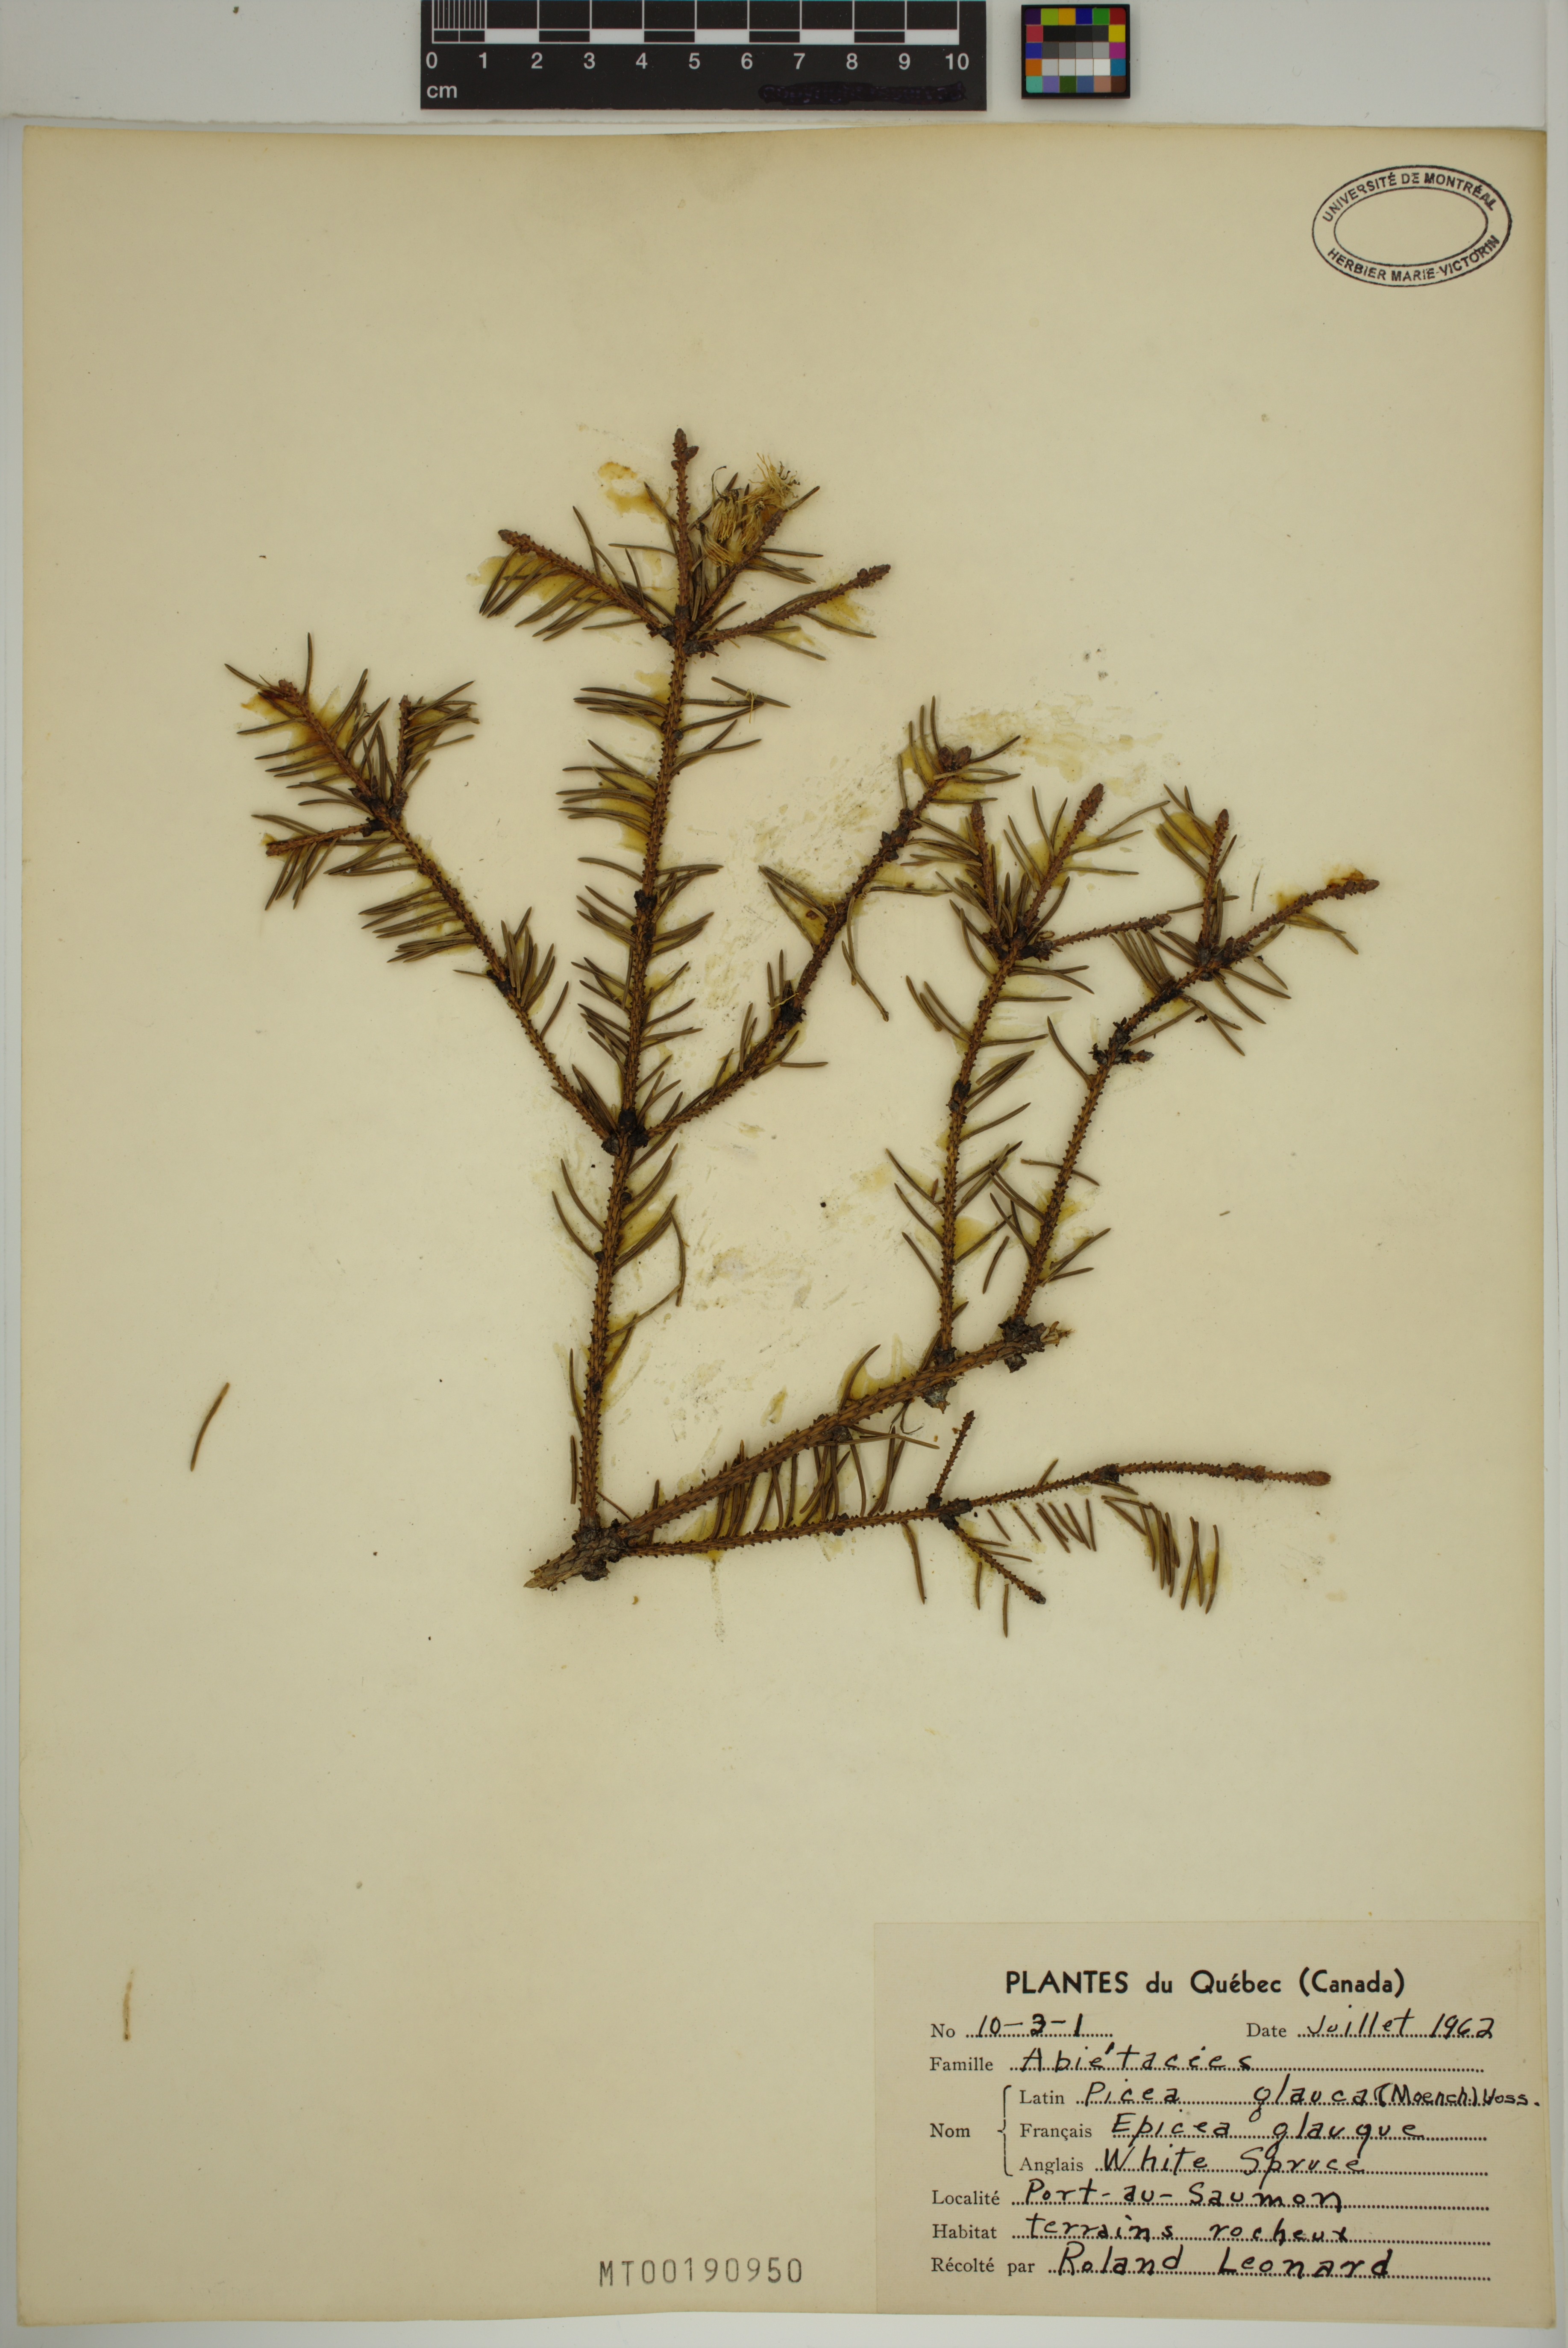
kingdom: Plantae
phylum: Tracheophyta
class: Pinopsida
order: Pinales
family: Pinaceae
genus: Picea
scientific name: Picea glauca
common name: White spruce
